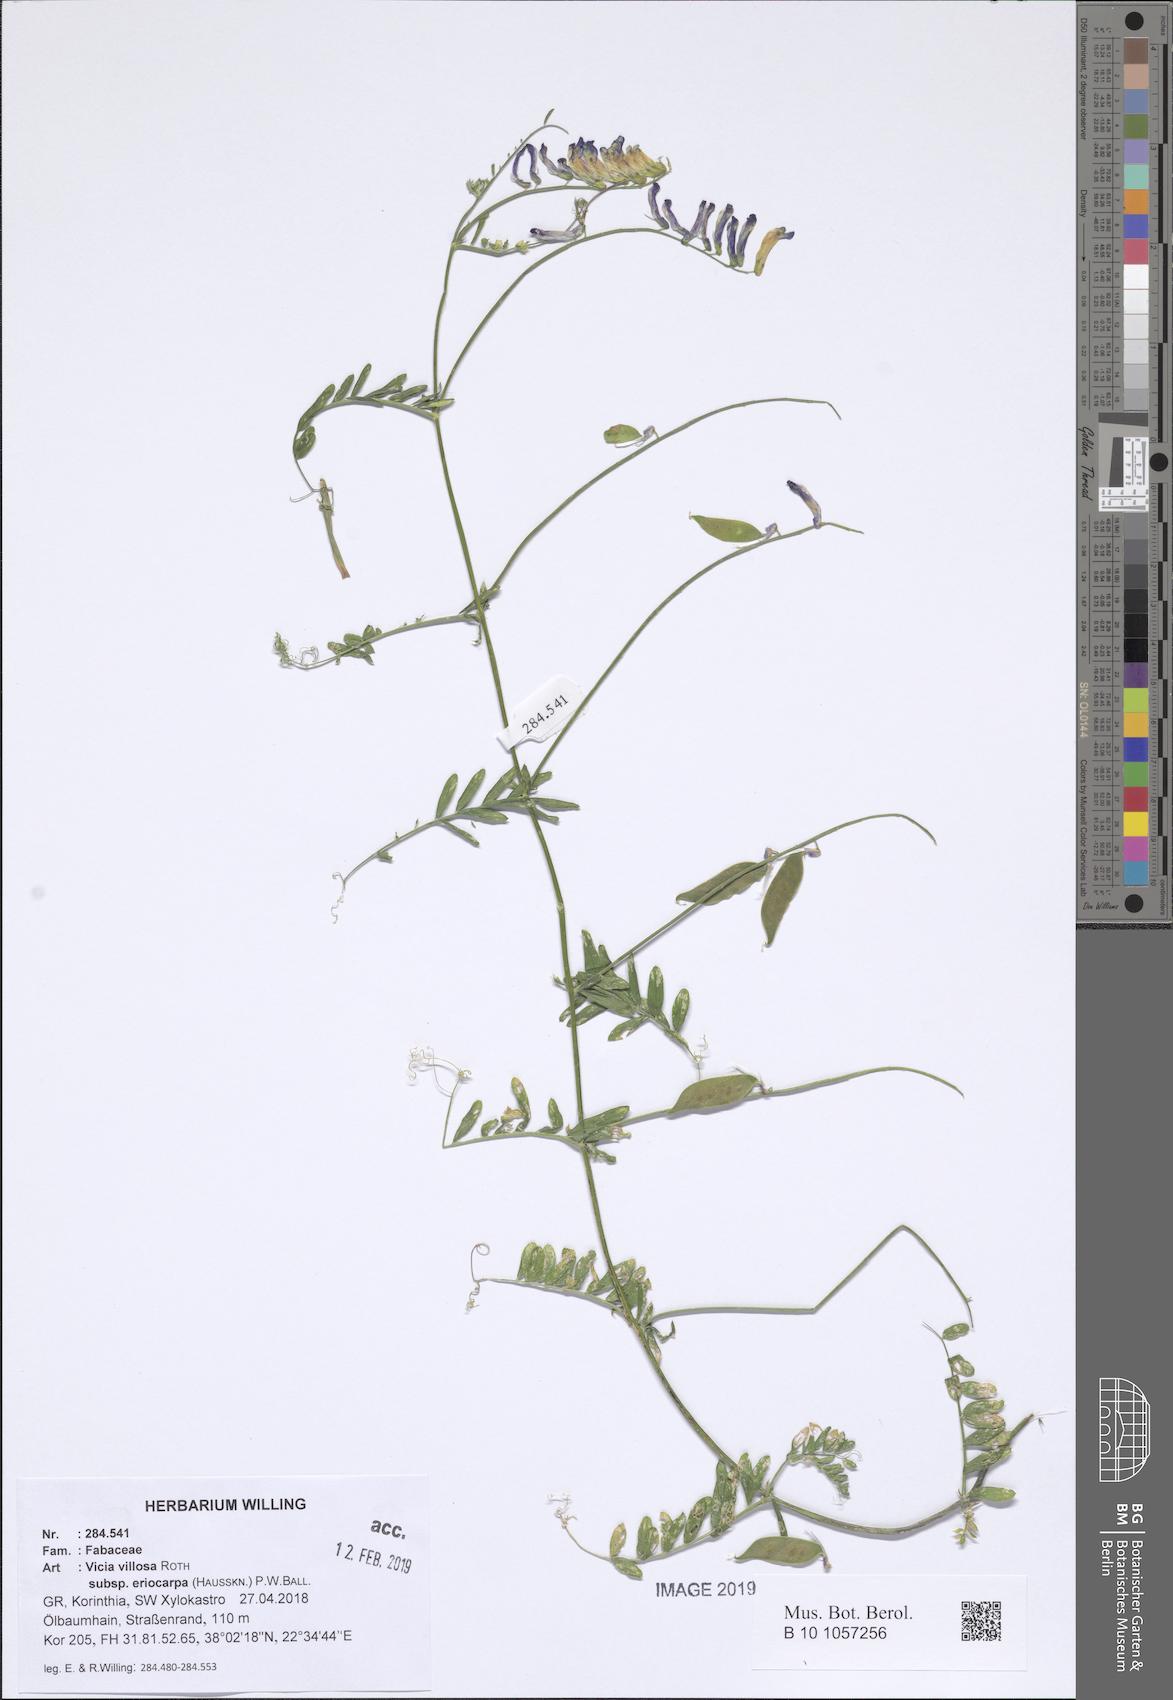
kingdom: Plantae
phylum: Tracheophyta
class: Magnoliopsida
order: Fabales
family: Fabaceae
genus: Vicia
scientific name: Vicia eriocarpa
